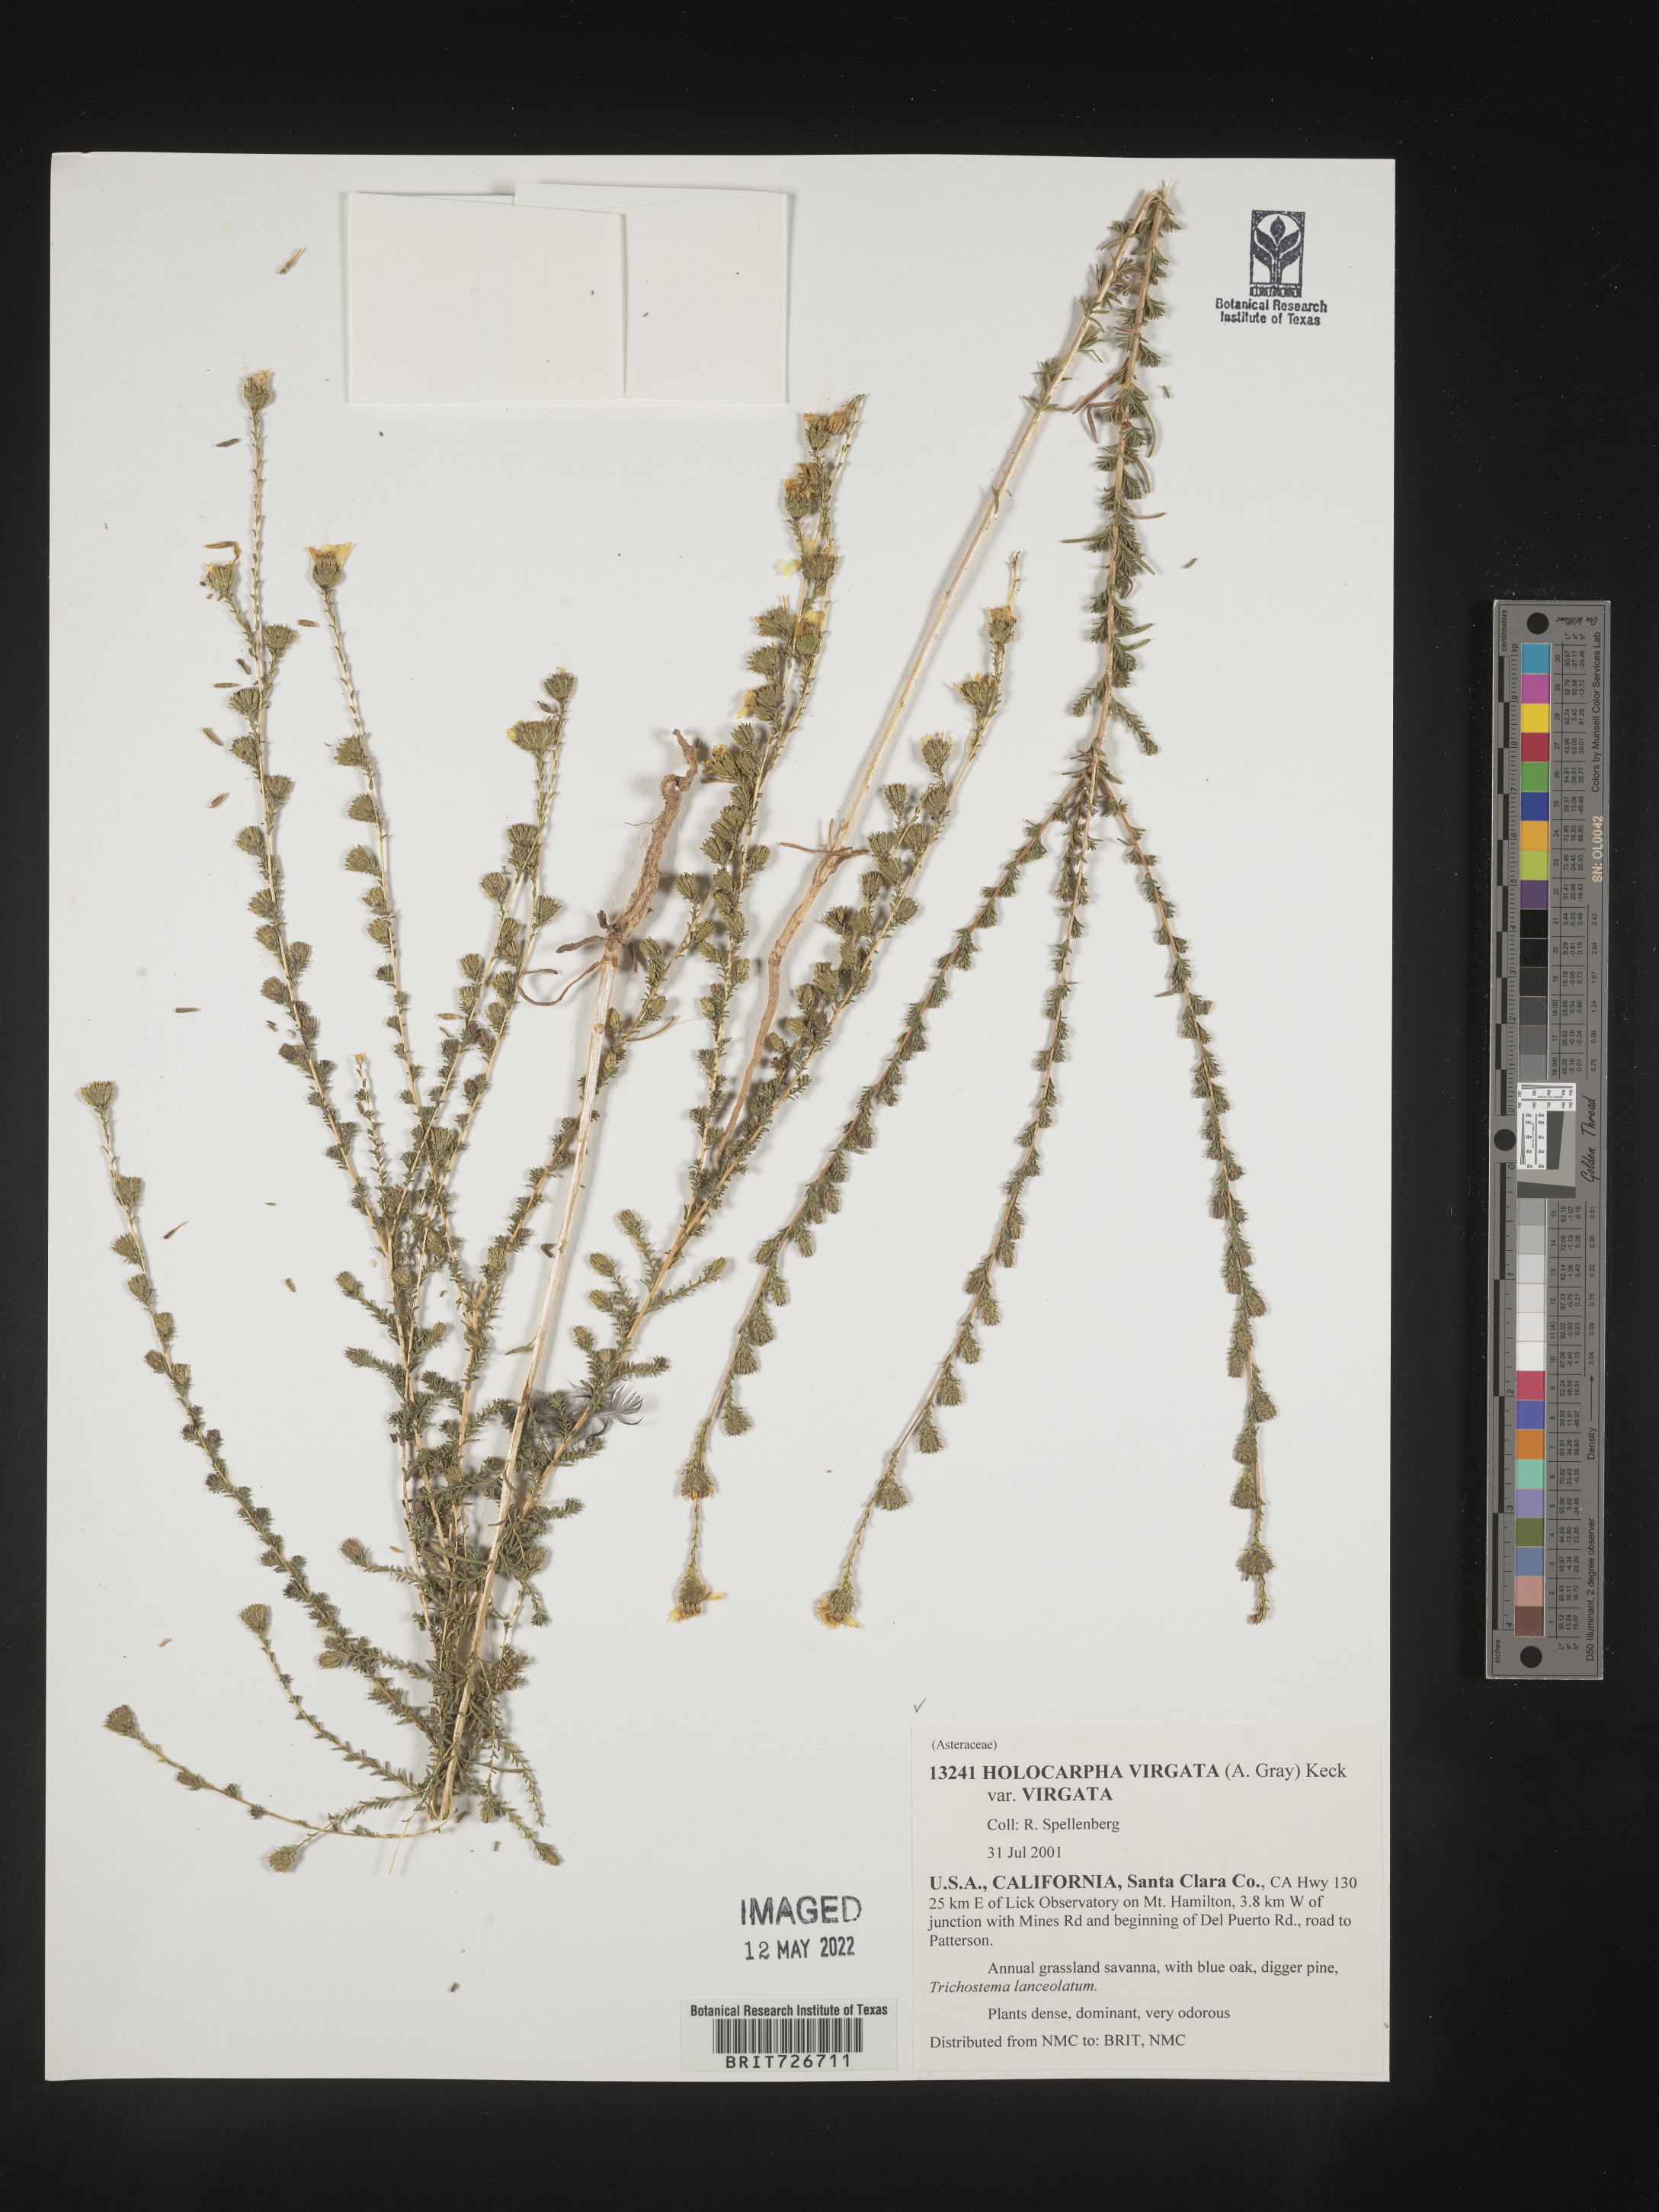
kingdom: Plantae
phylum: Tracheophyta
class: Magnoliopsida
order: Asterales
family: Asteraceae
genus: Holocarpha
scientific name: Holocarpha
